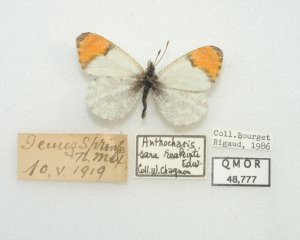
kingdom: Animalia
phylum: Arthropoda
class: Insecta
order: Lepidoptera
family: Pieridae
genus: Anthocharis
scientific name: Anthocharis sara
